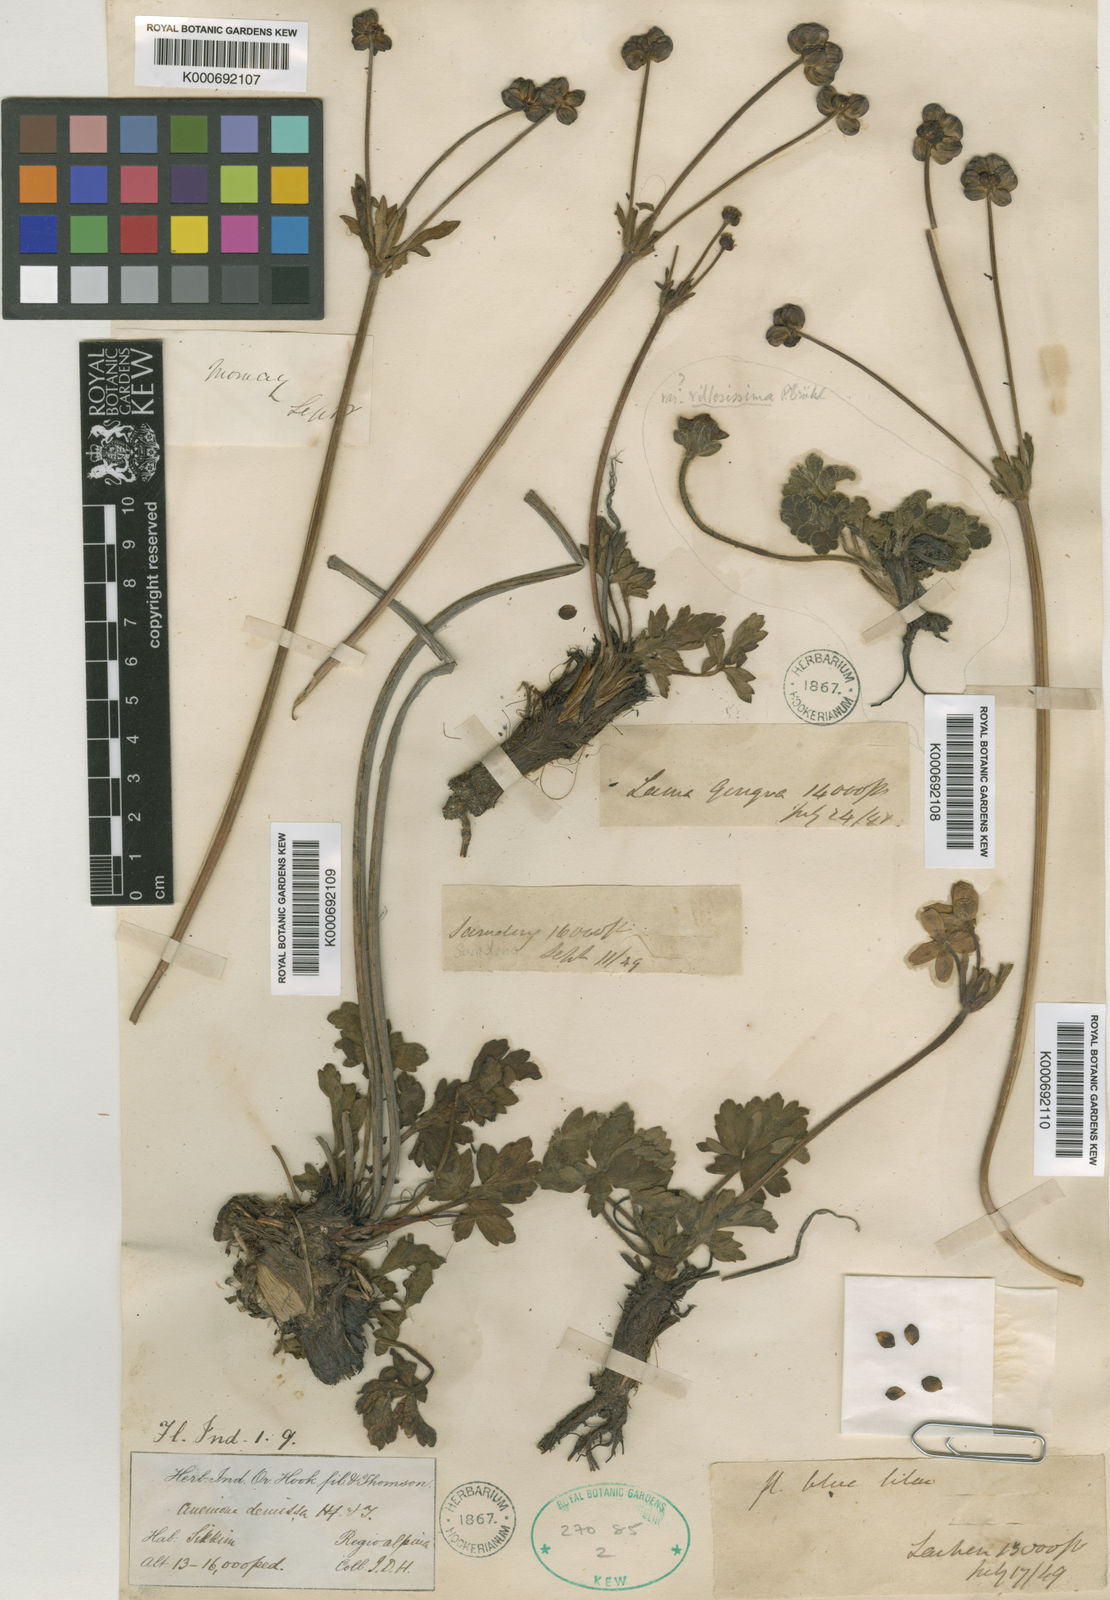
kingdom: Plantae
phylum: Tracheophyta
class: Magnoliopsida
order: Ranunculales
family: Ranunculaceae
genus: Anemonastrum
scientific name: Anemonastrum demissum
